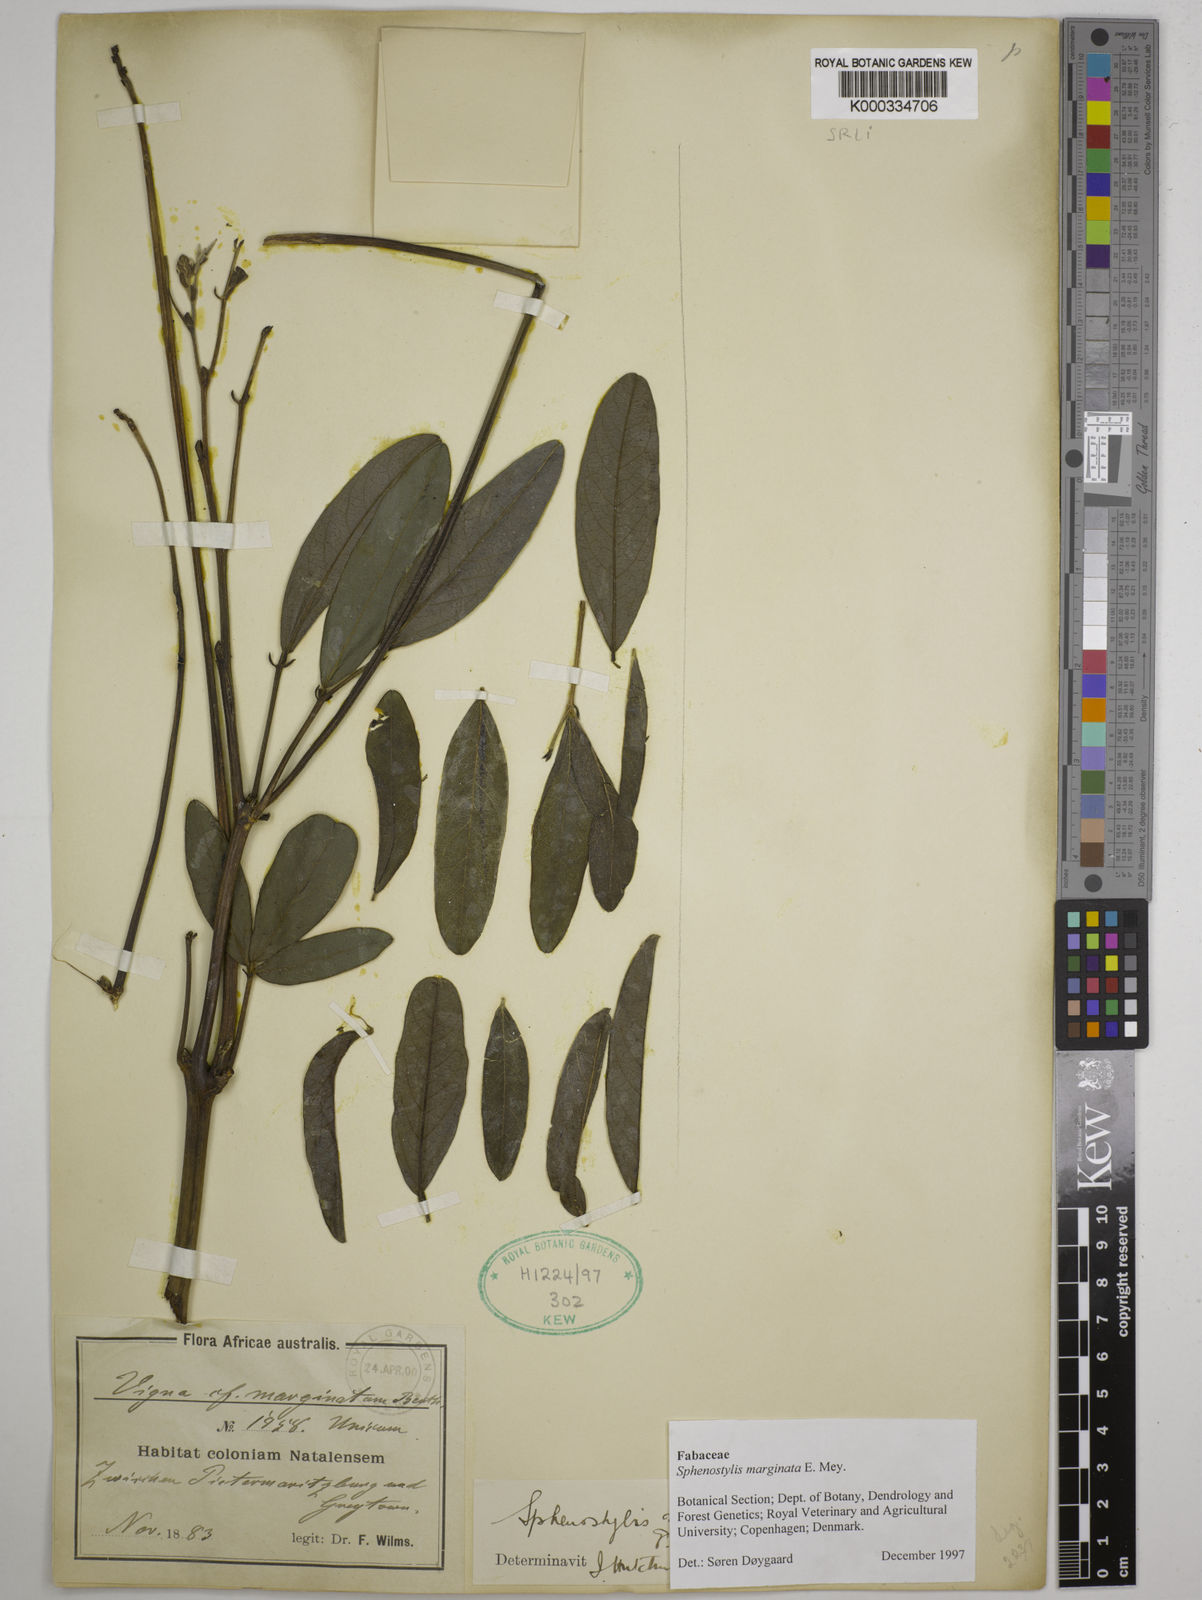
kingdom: Plantae
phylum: Tracheophyta
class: Magnoliopsida
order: Fabales
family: Fabaceae
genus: Sphenostylis
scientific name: Sphenostylis marginata
